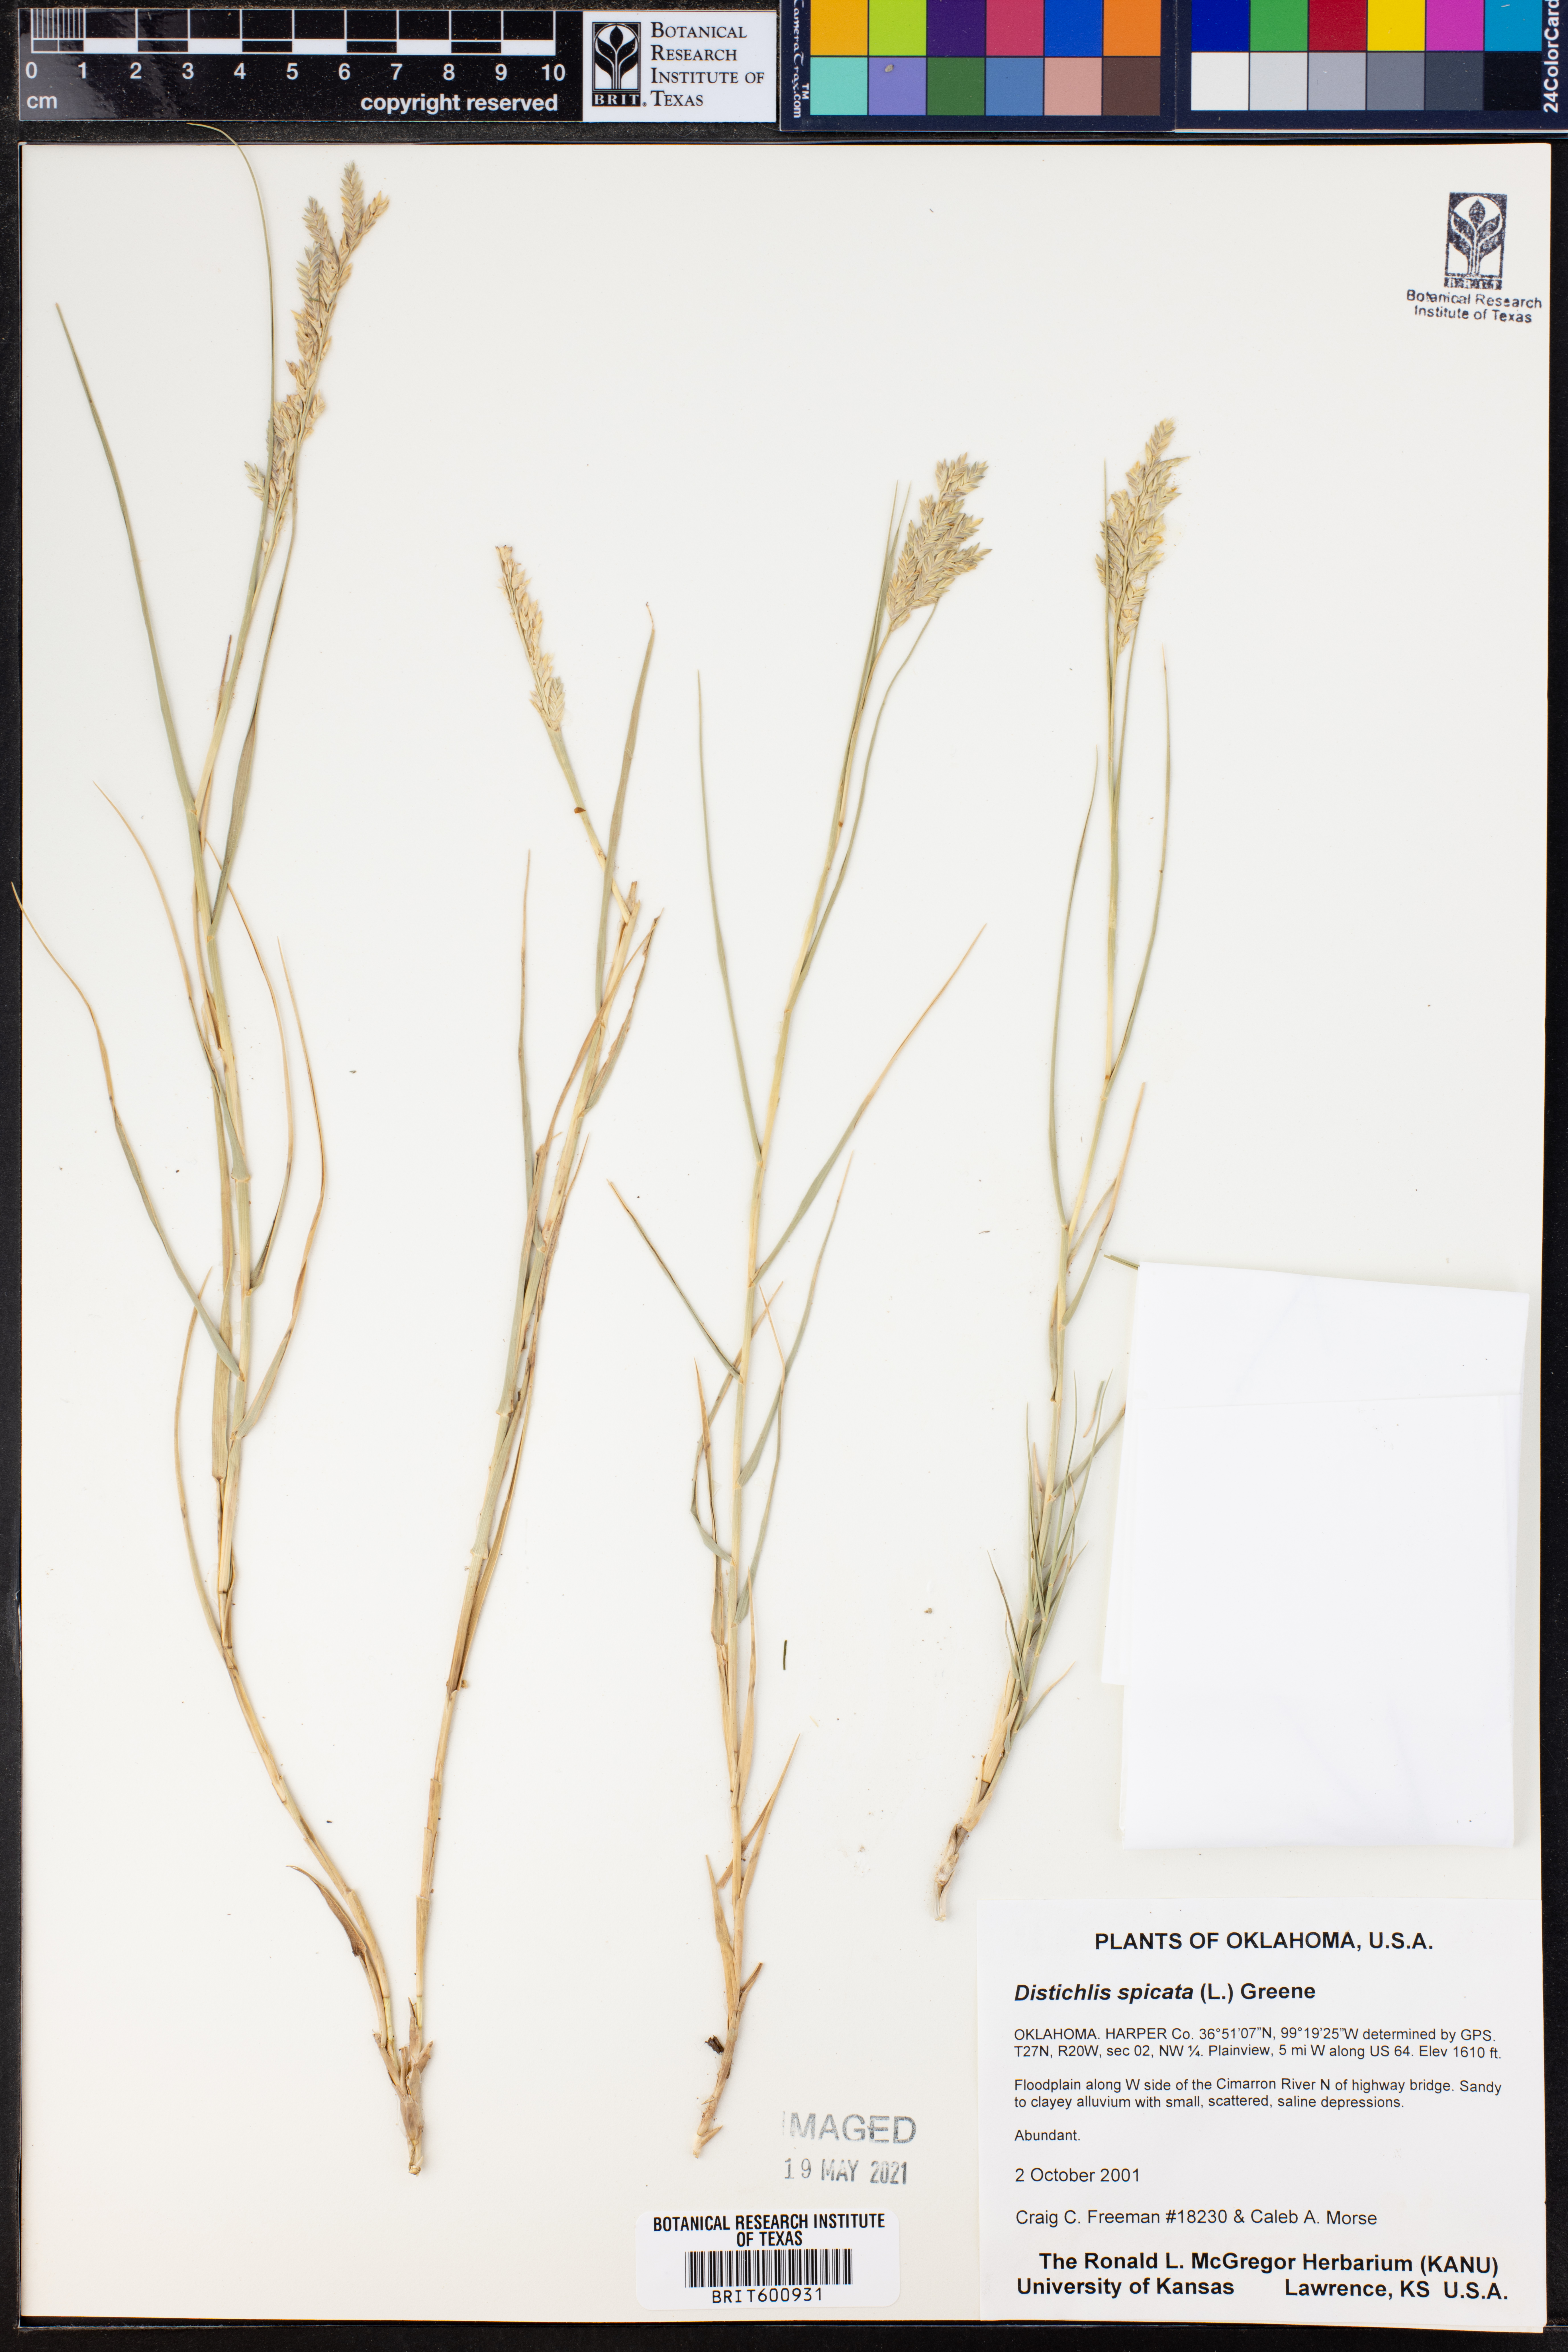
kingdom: Plantae
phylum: Tracheophyta
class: Liliopsida
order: Poales
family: Poaceae
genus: Distichlis
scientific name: Distichlis spicata
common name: Saltgrass
